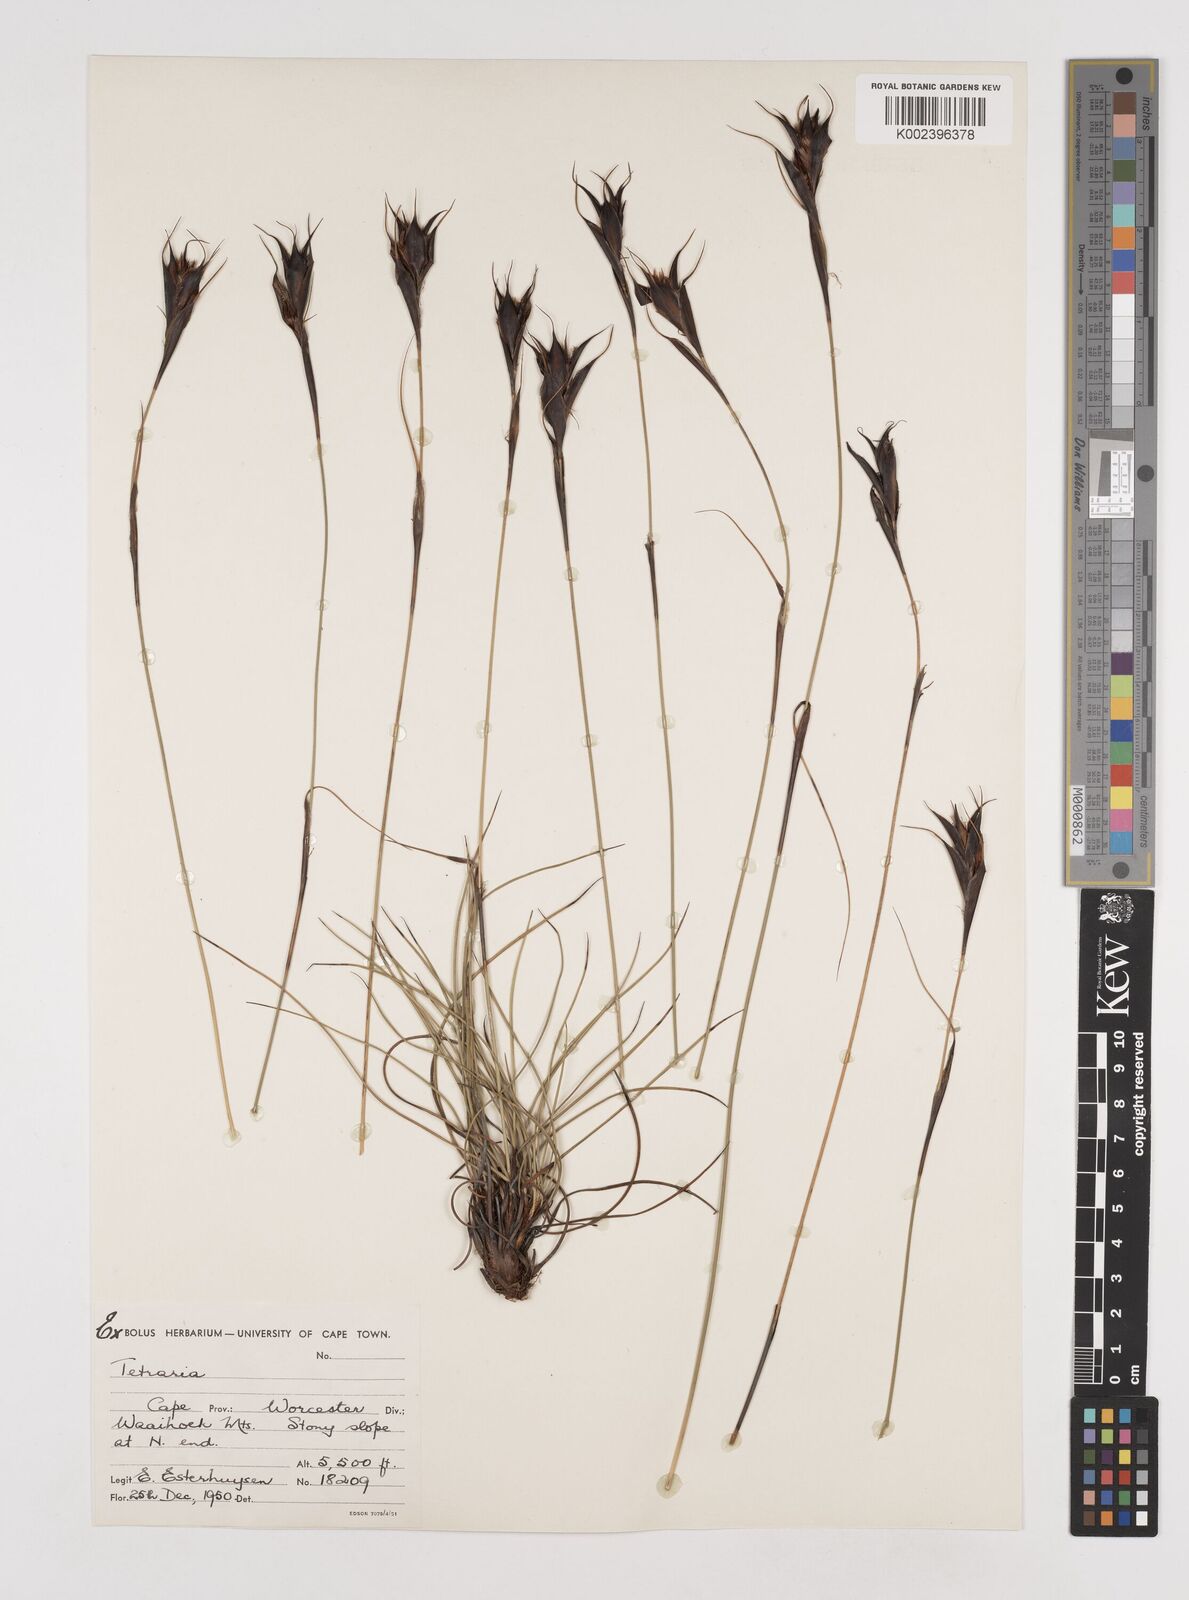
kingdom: Plantae
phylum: Tracheophyta
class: Liliopsida
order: Poales
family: Cyperaceae
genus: Tetraria
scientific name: Tetraria wallichiana
